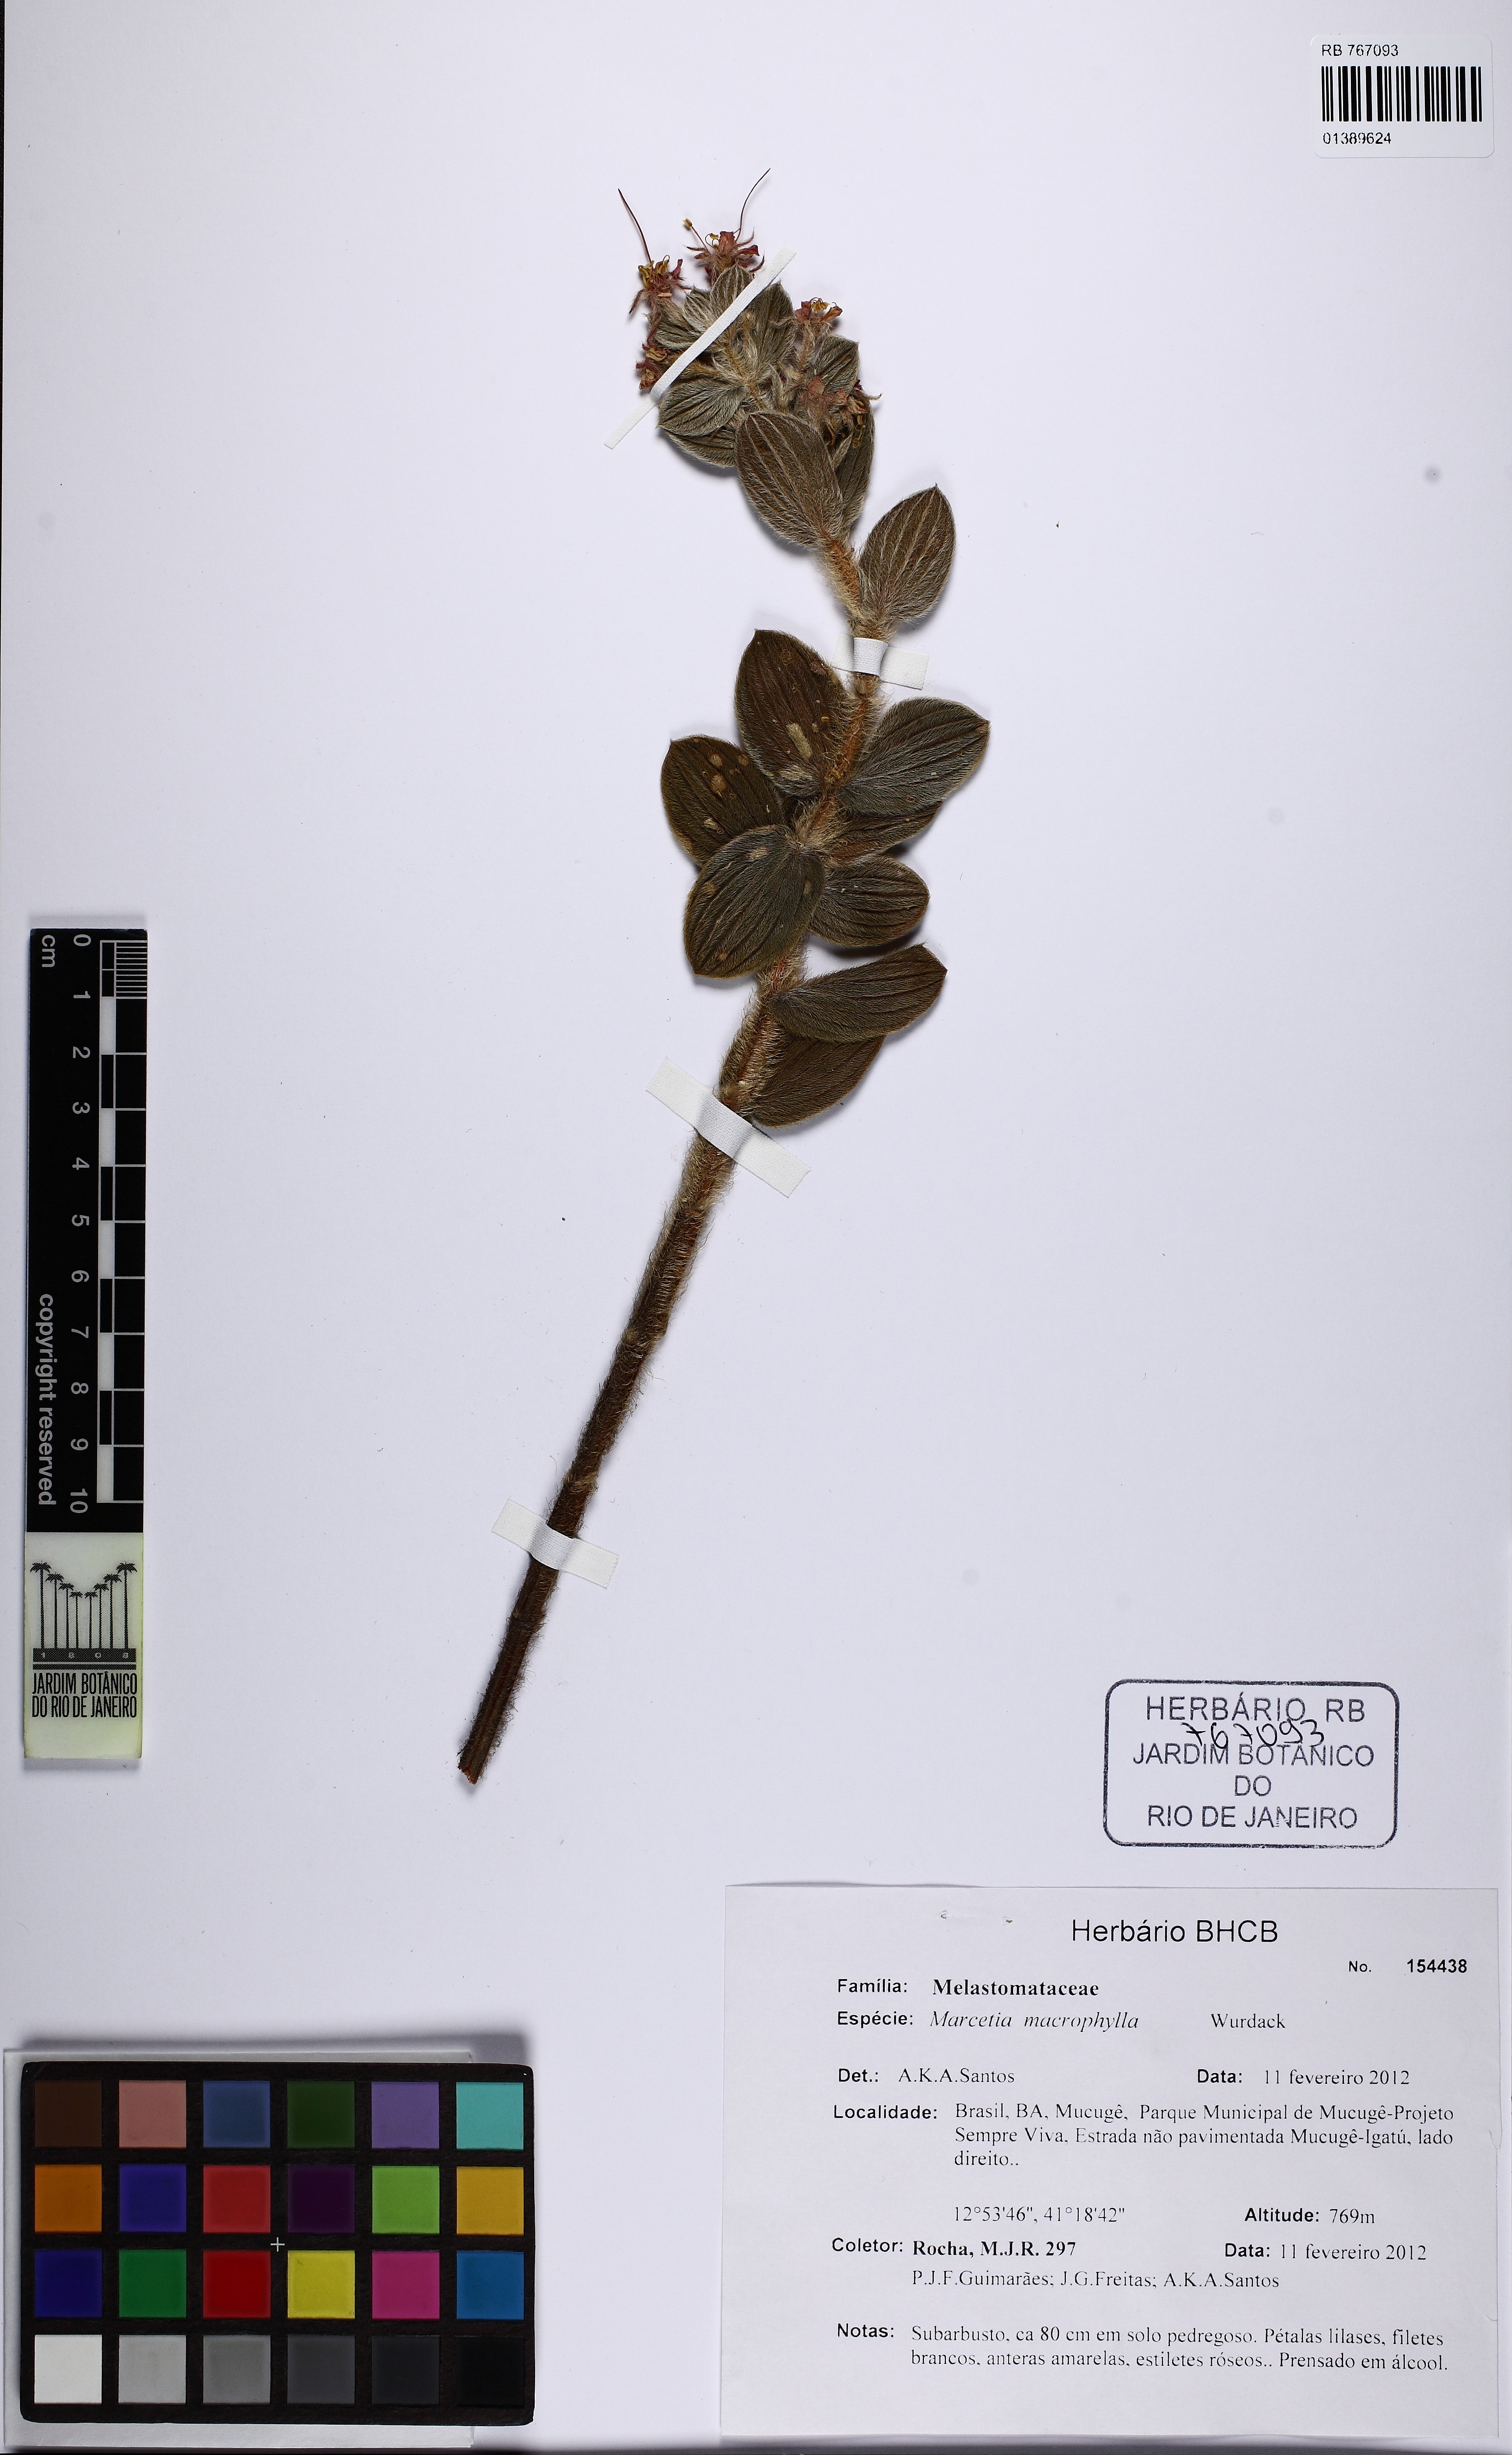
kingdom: Plantae
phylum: Tracheophyta
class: Magnoliopsida
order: Myrtales
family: Melastomataceae
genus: Marcetia
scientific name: Marcetia macrophylla
